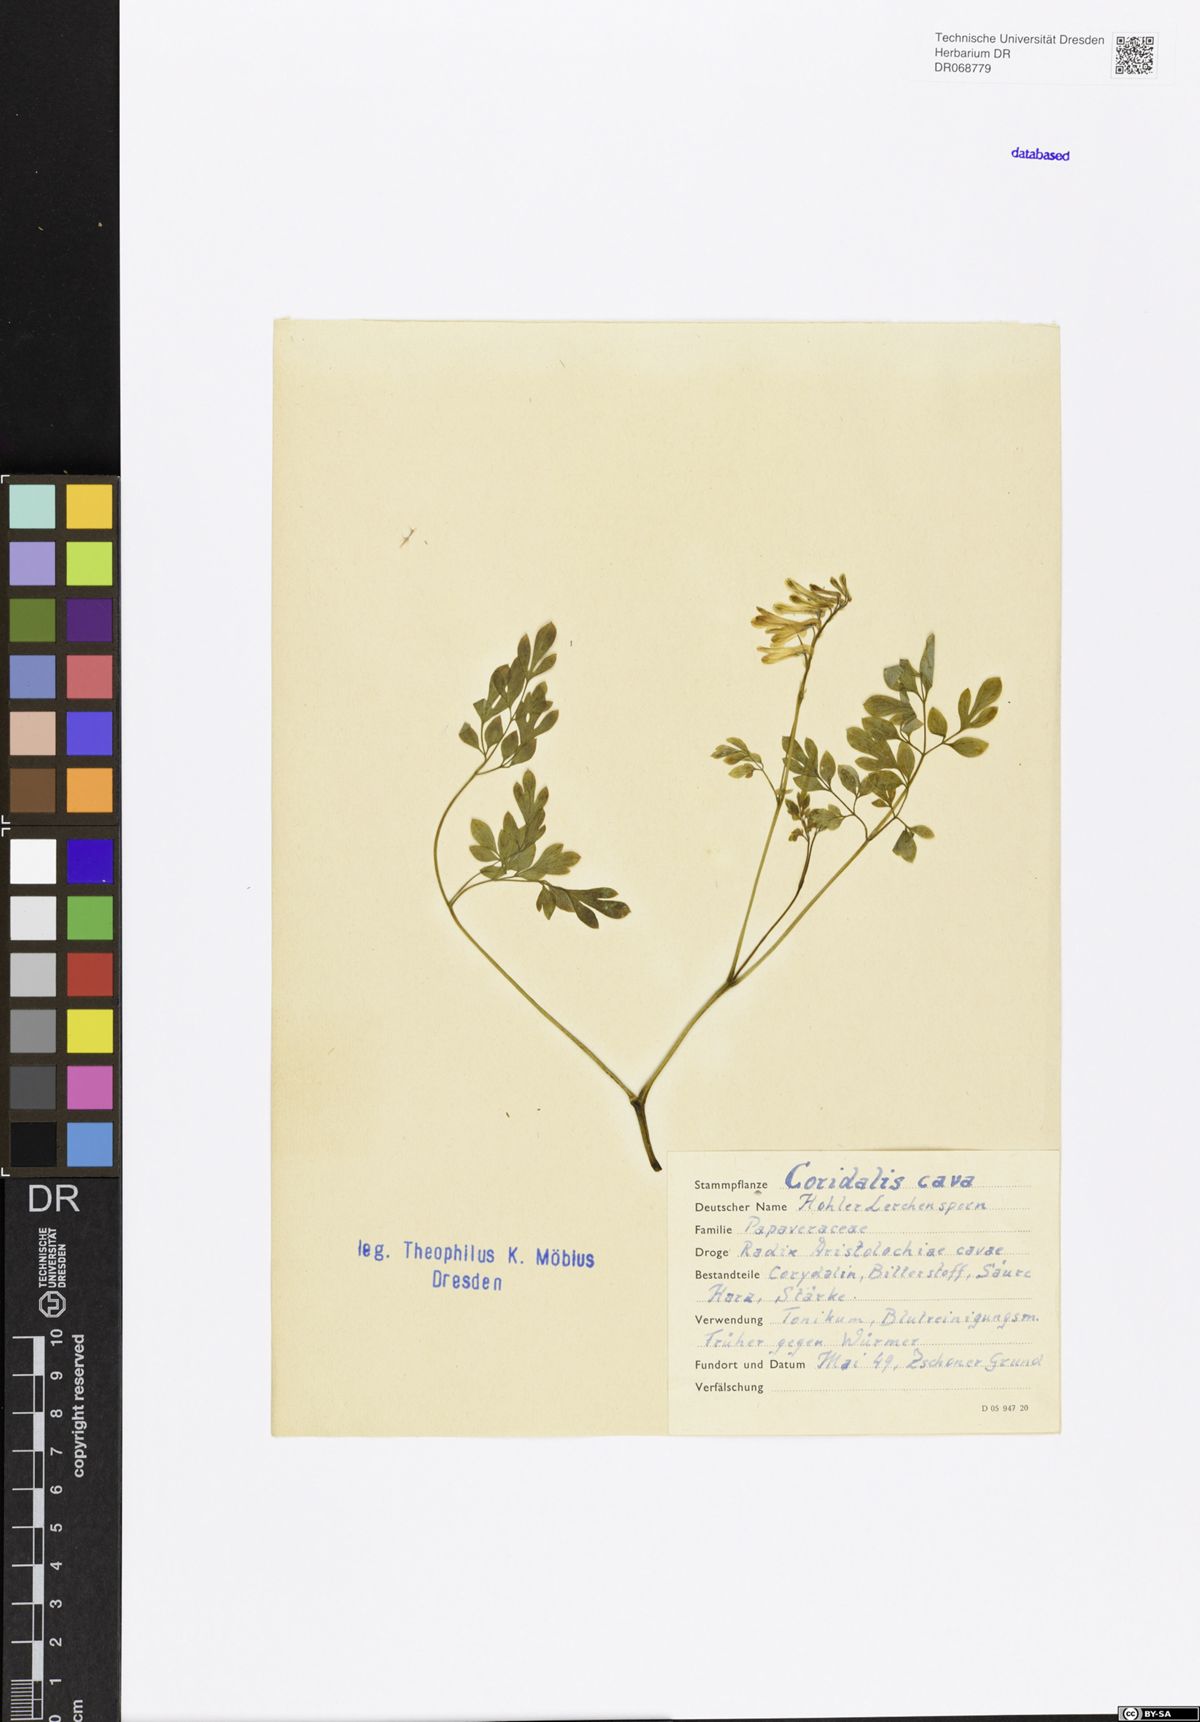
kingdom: Plantae
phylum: Tracheophyta
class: Magnoliopsida
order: Ranunculales
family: Papaveraceae
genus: Corydalis
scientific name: Corydalis cava
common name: Hollowroot
